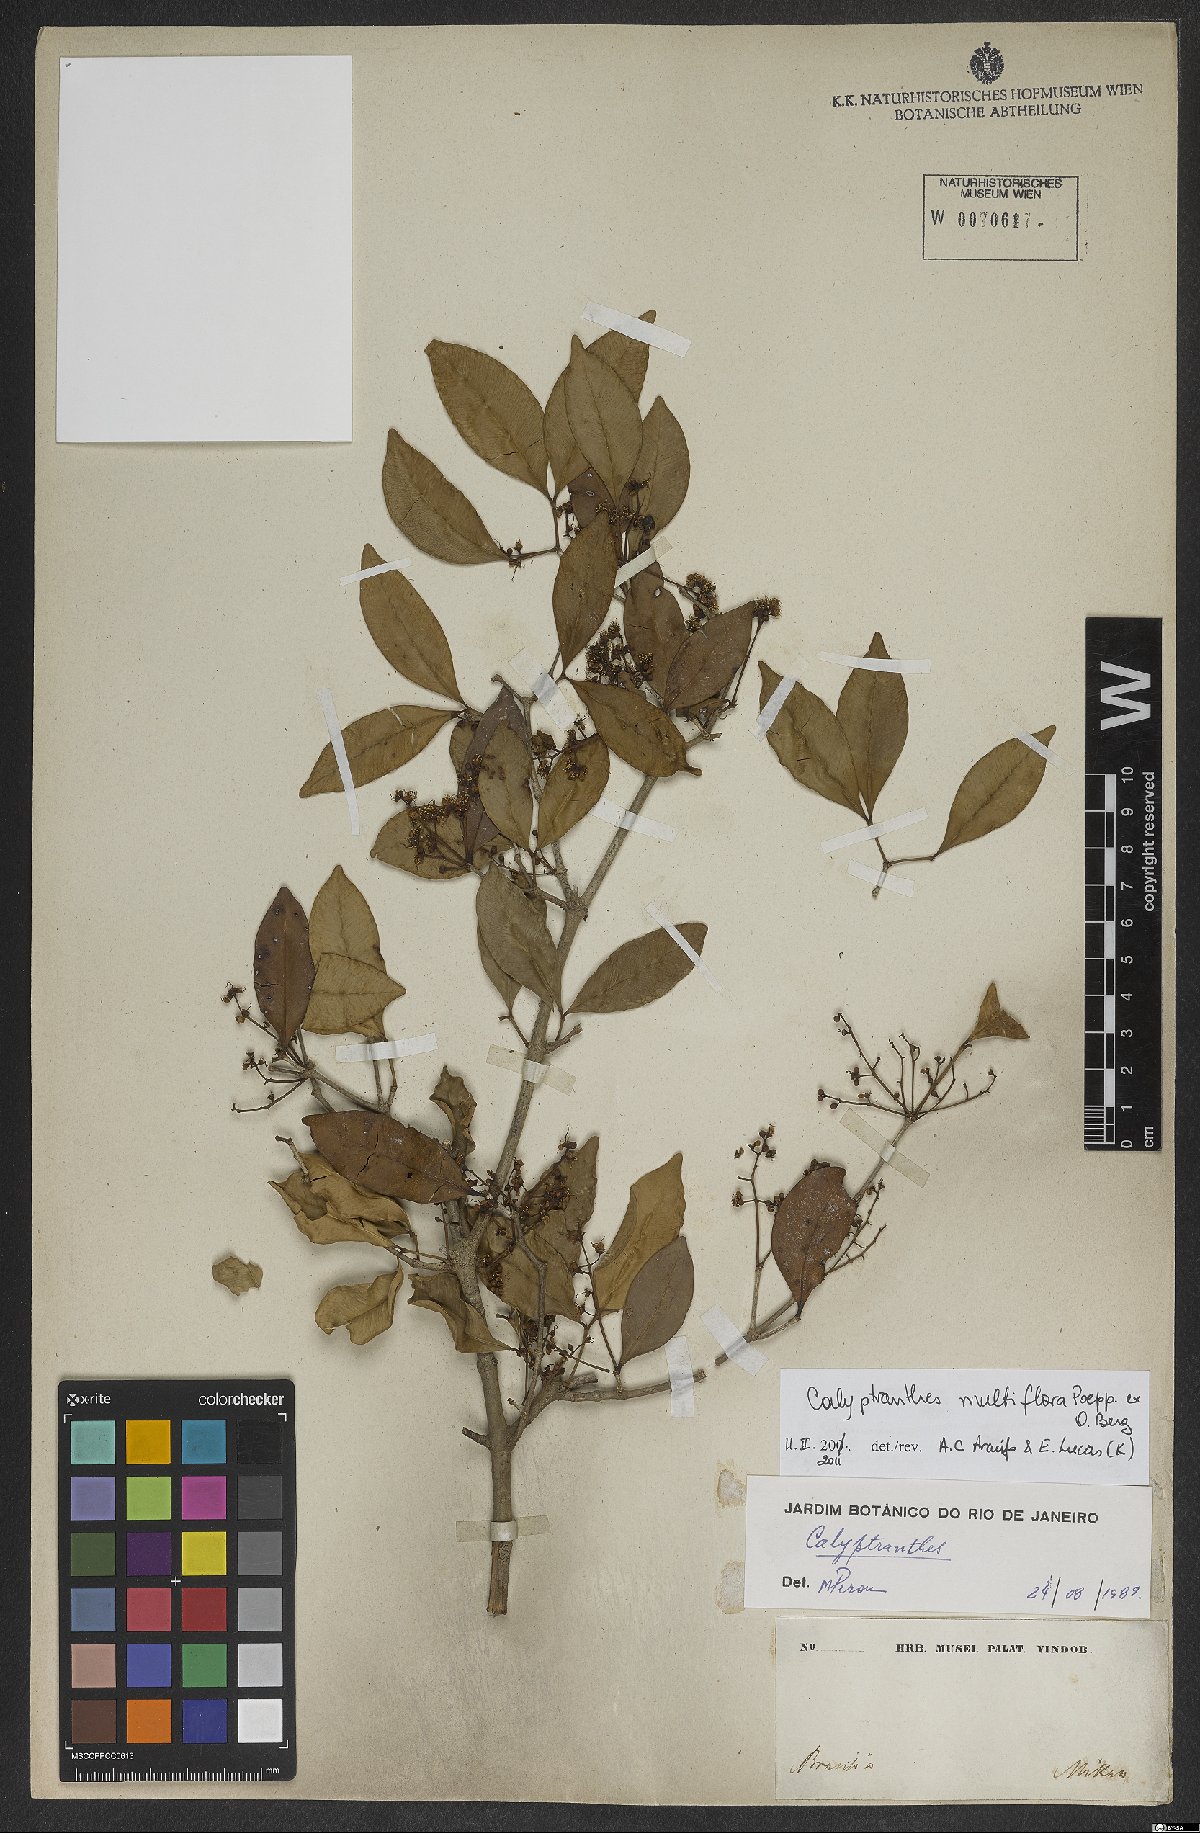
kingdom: Plantae
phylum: Tracheophyta
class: Magnoliopsida
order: Myrtales
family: Myrtaceae
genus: Myrcia
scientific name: Myrcia aulomyrcioides
